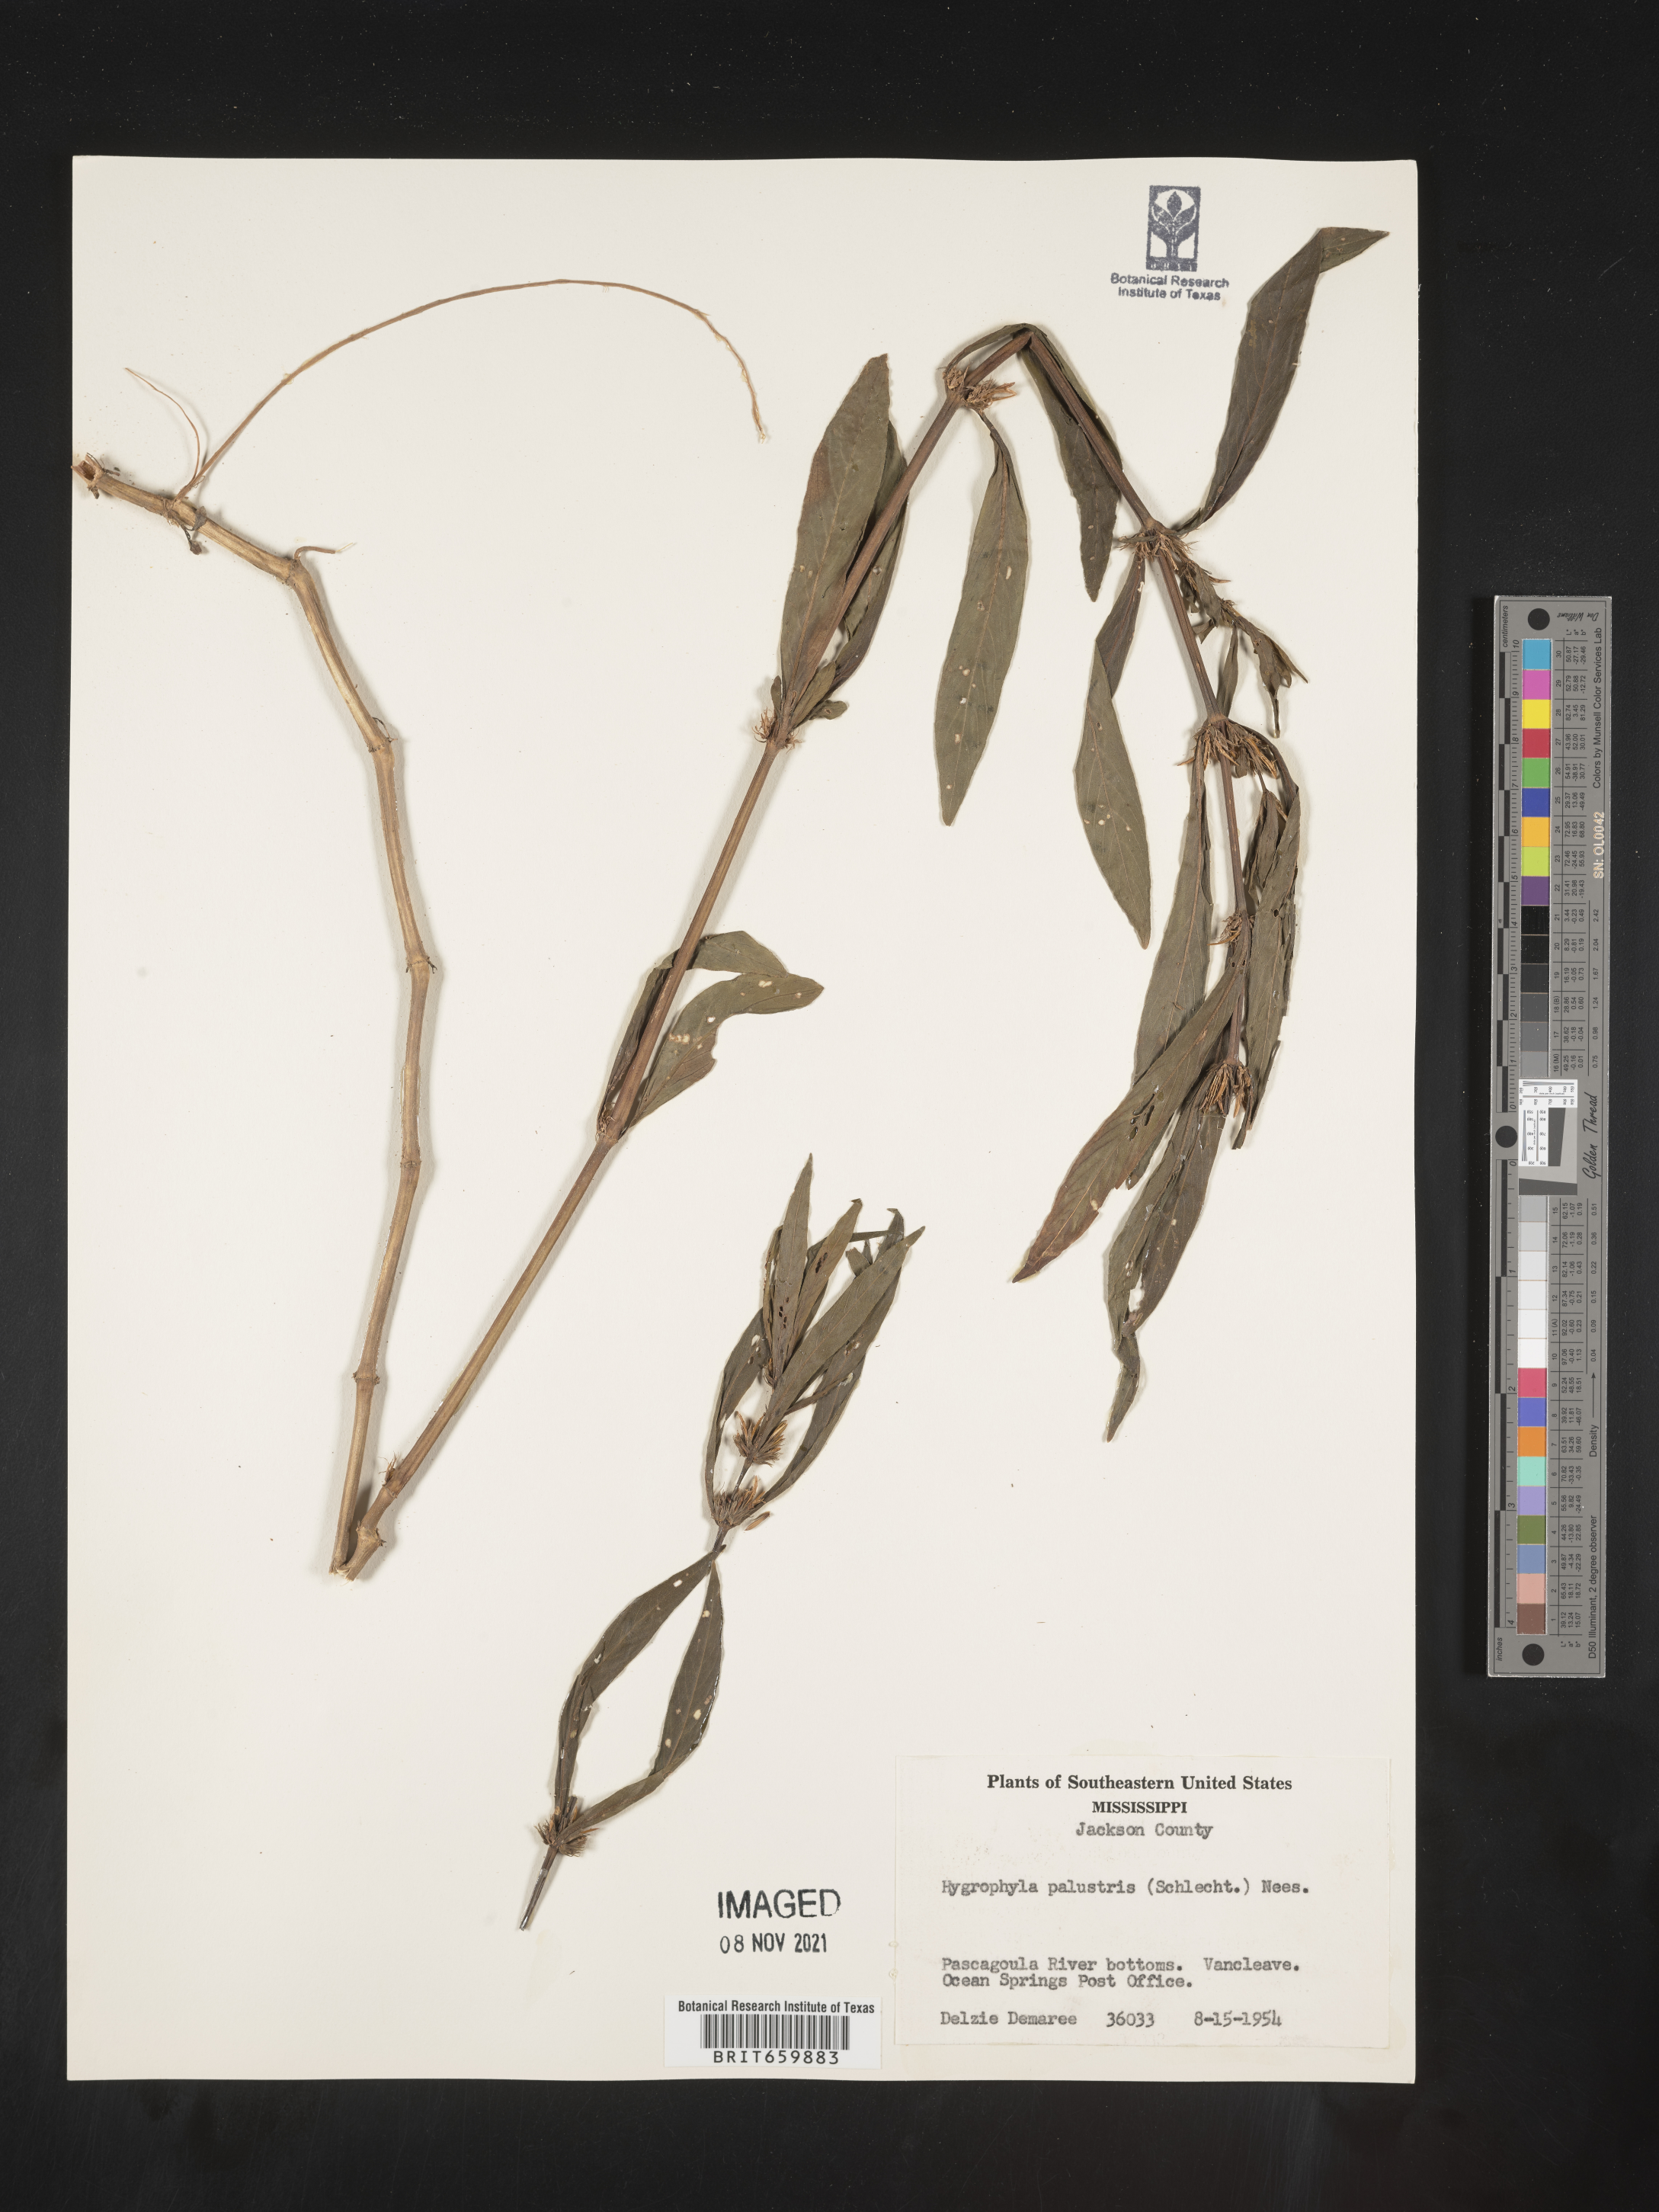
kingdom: Plantae
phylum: Tracheophyta
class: Magnoliopsida
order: Lamiales
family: Acanthaceae
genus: Hygrophila
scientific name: Hygrophila costata
